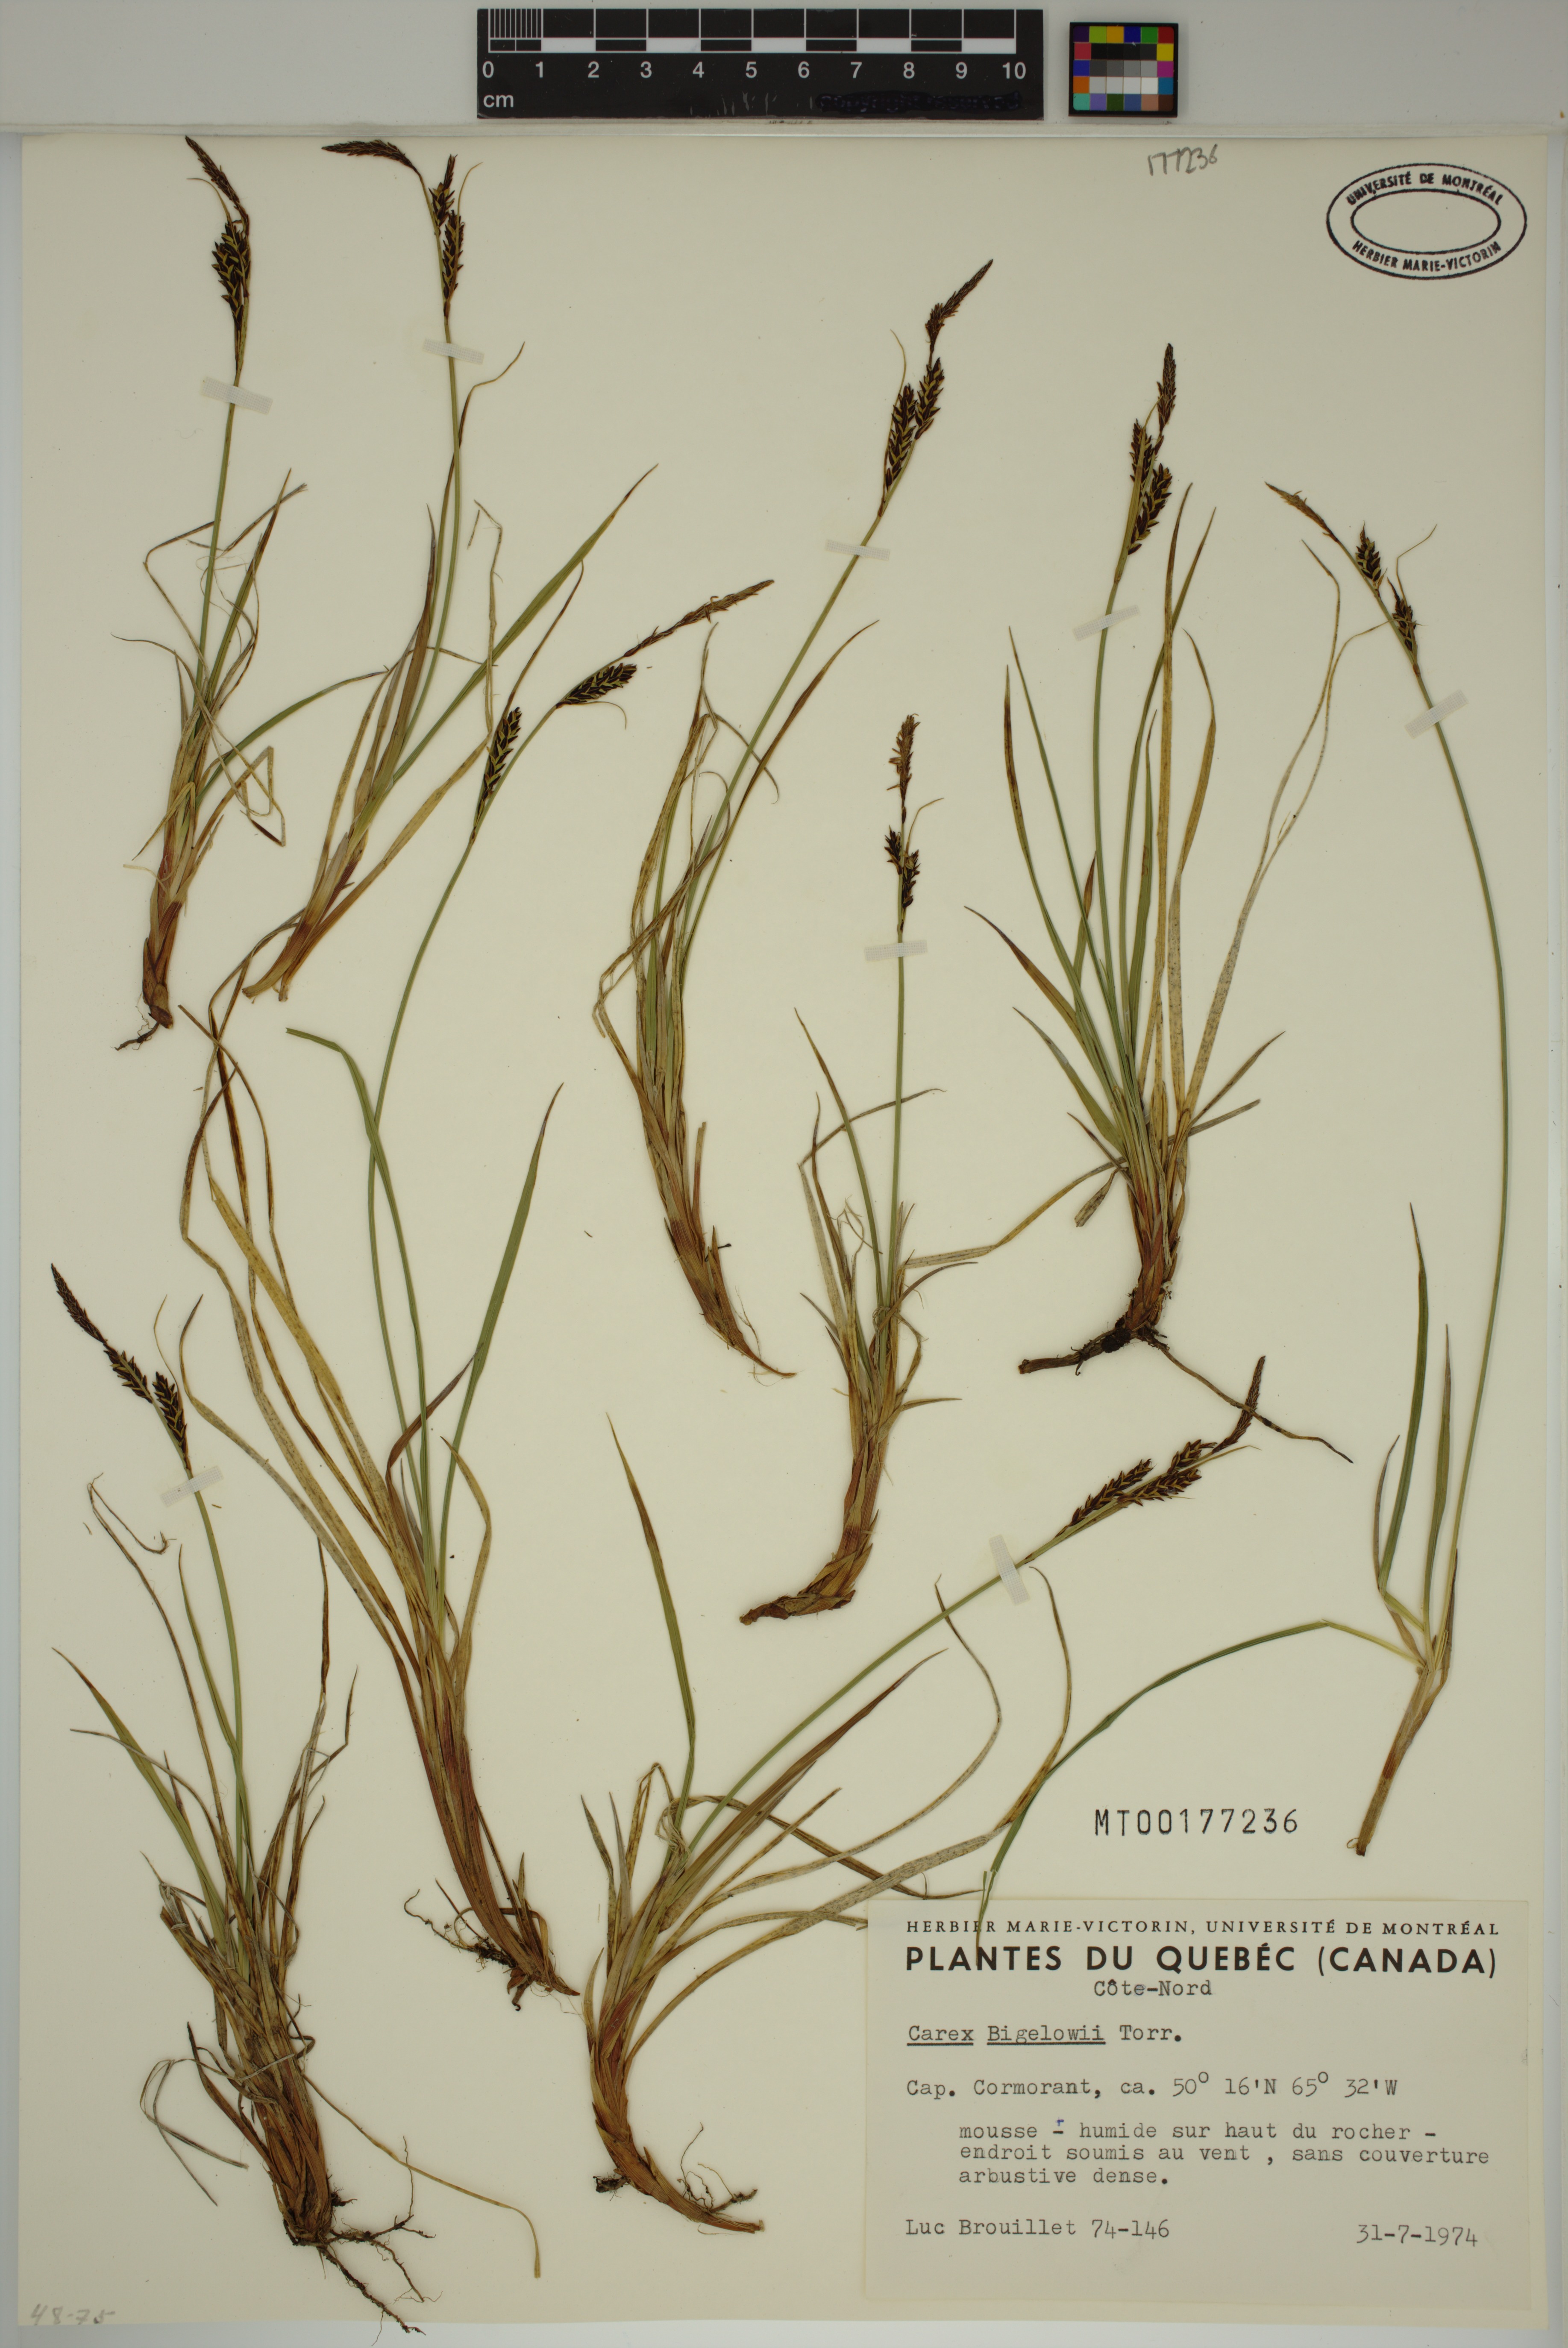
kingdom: Plantae
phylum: Tracheophyta
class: Liliopsida
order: Poales
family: Cyperaceae
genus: Carex
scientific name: Carex bigelowii
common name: Stiff sedge
